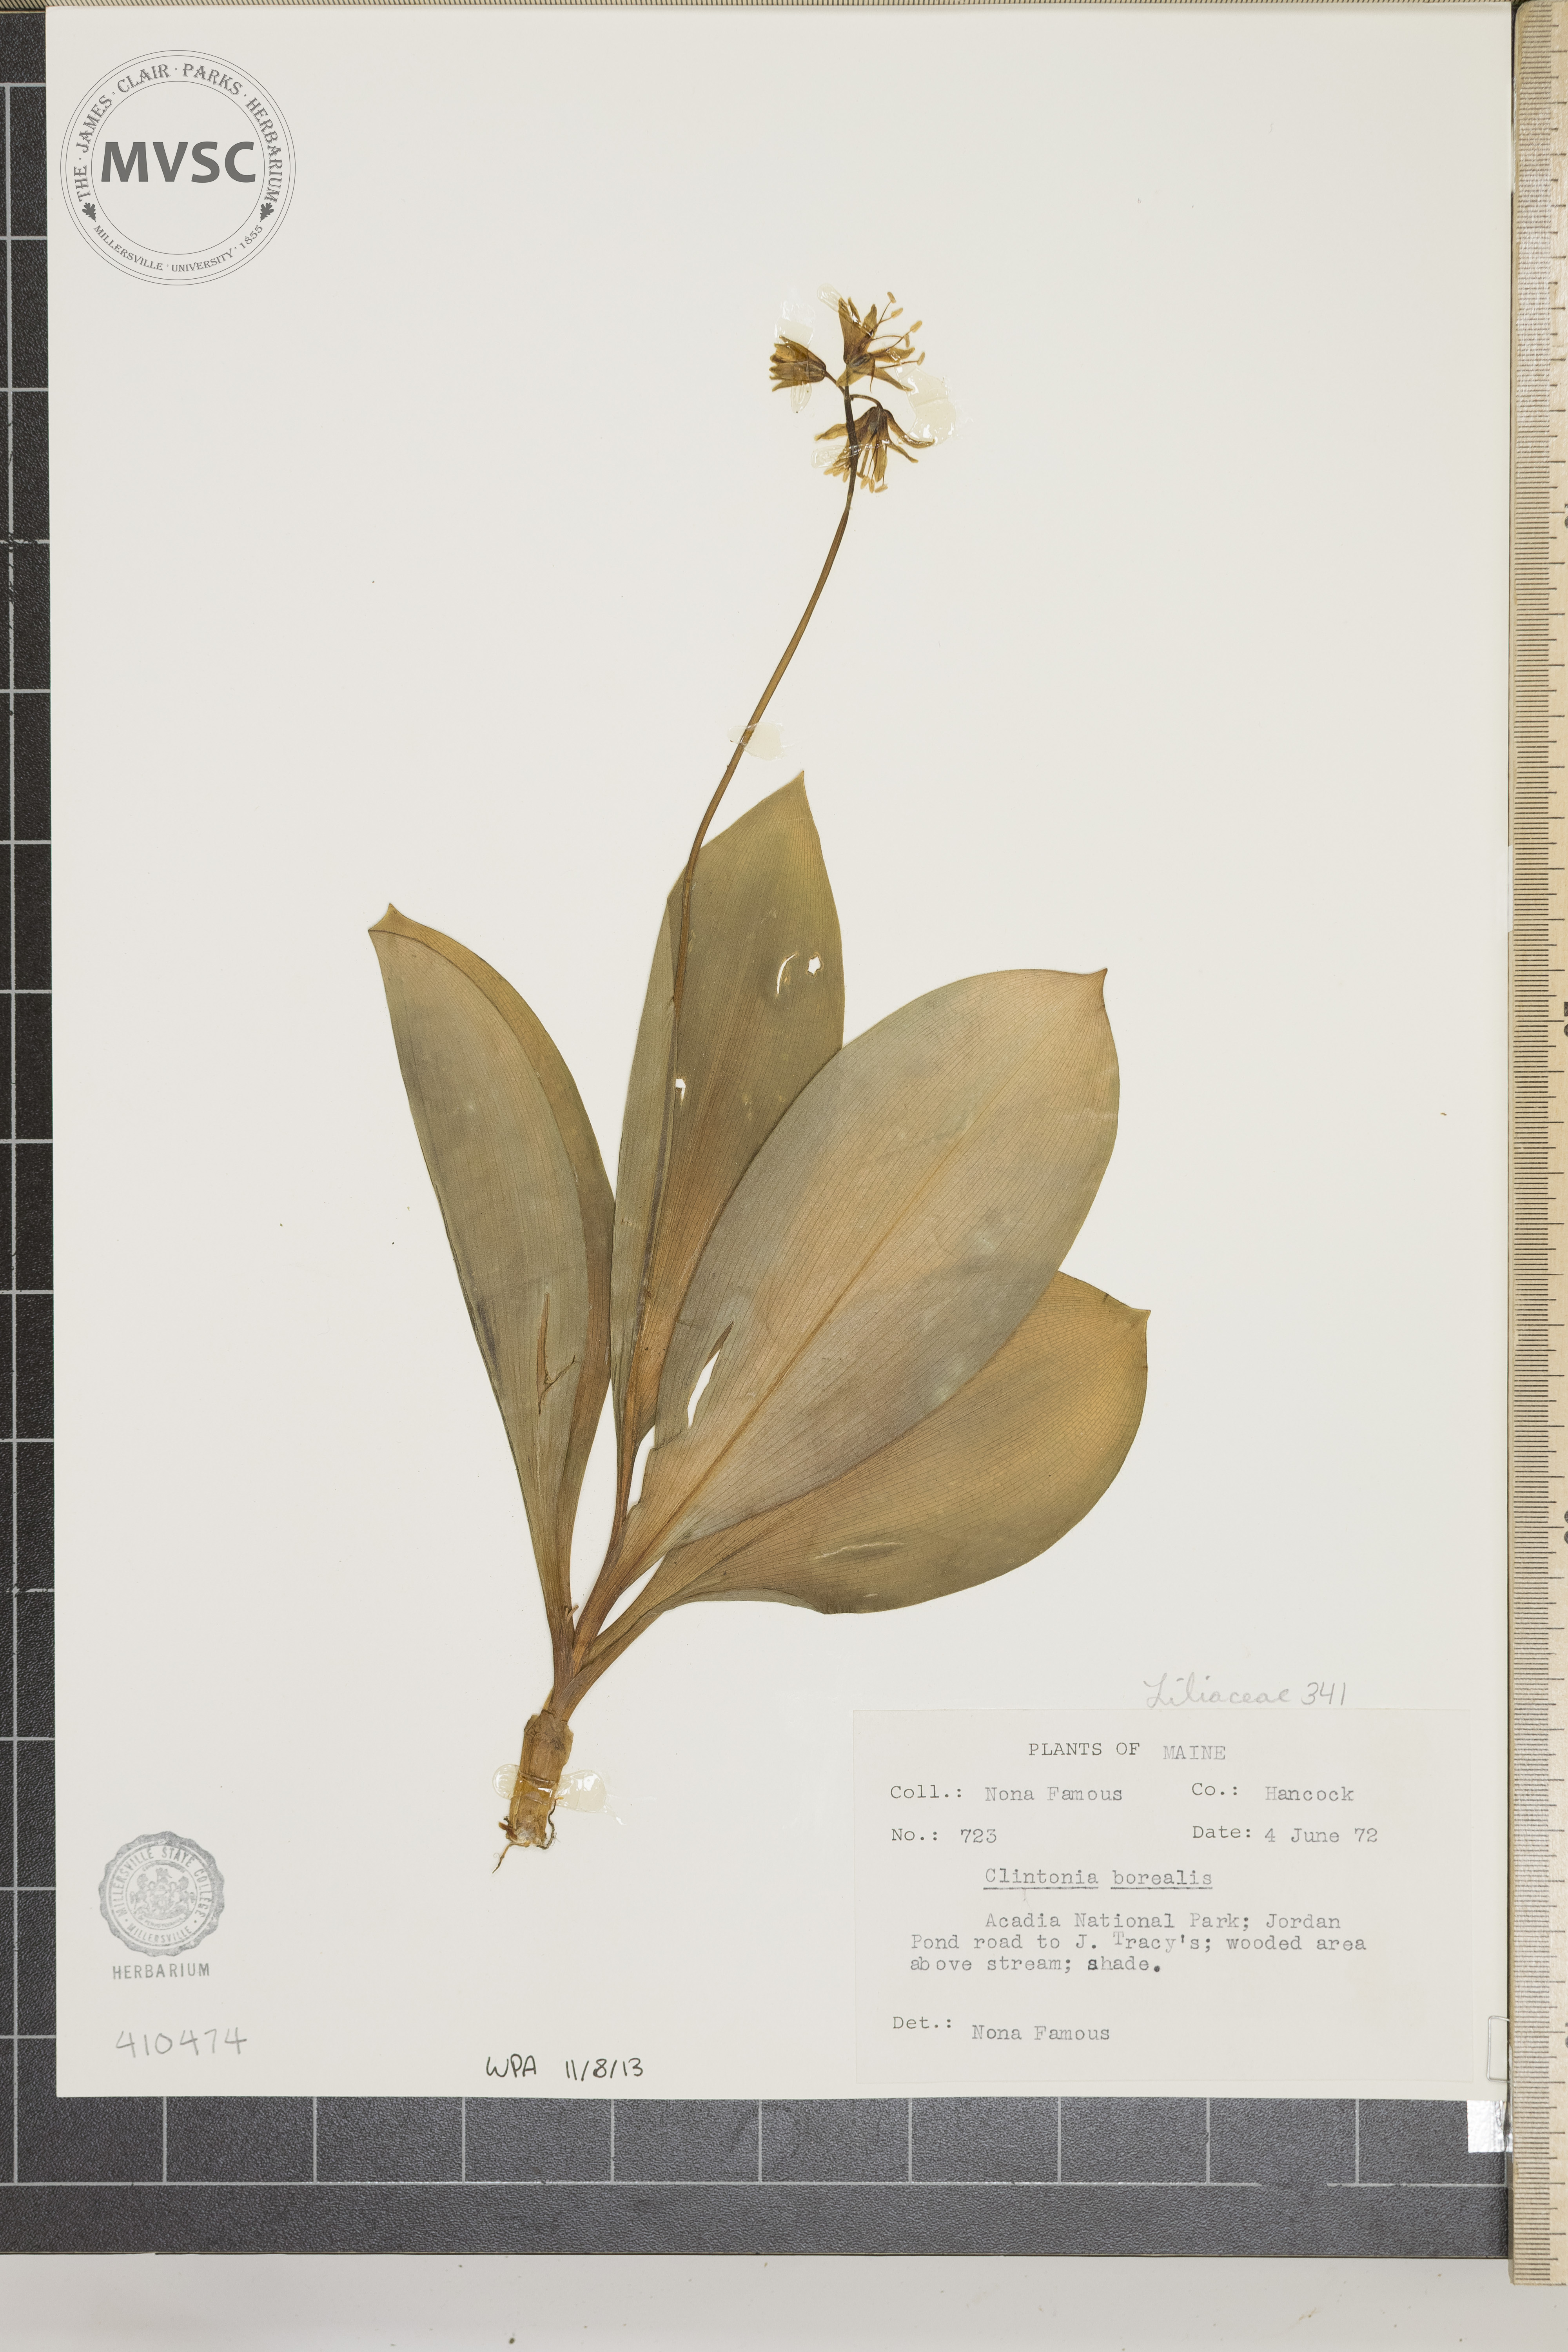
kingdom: Plantae
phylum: Tracheophyta
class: Liliopsida
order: Liliales
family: Liliaceae
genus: Clintonia
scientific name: Clintonia borealis
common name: Yellow clintonia
